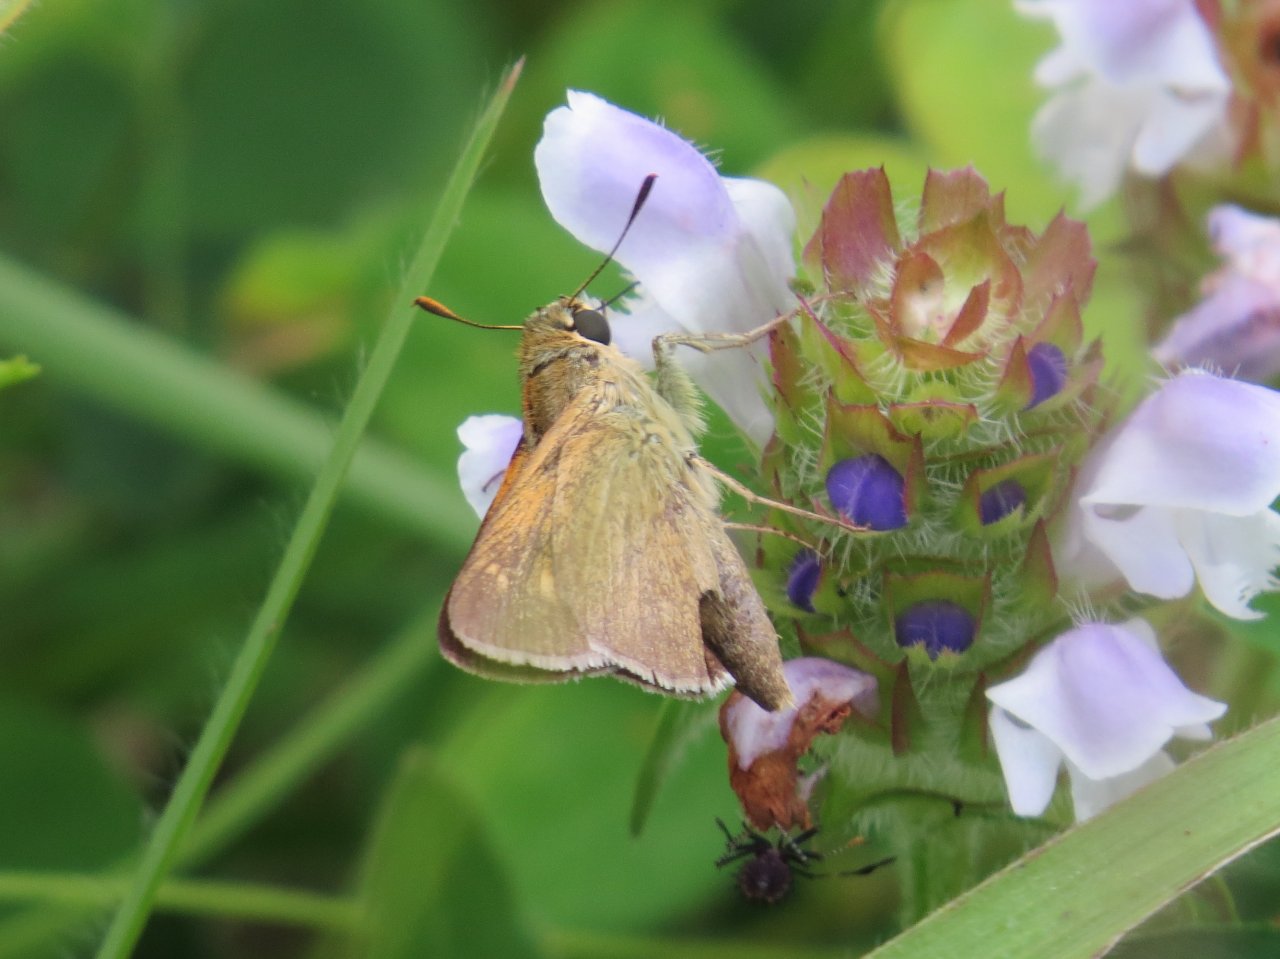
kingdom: Animalia
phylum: Arthropoda
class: Insecta
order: Lepidoptera
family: Hesperiidae
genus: Polites
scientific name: Polites
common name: Crossline Skipper
